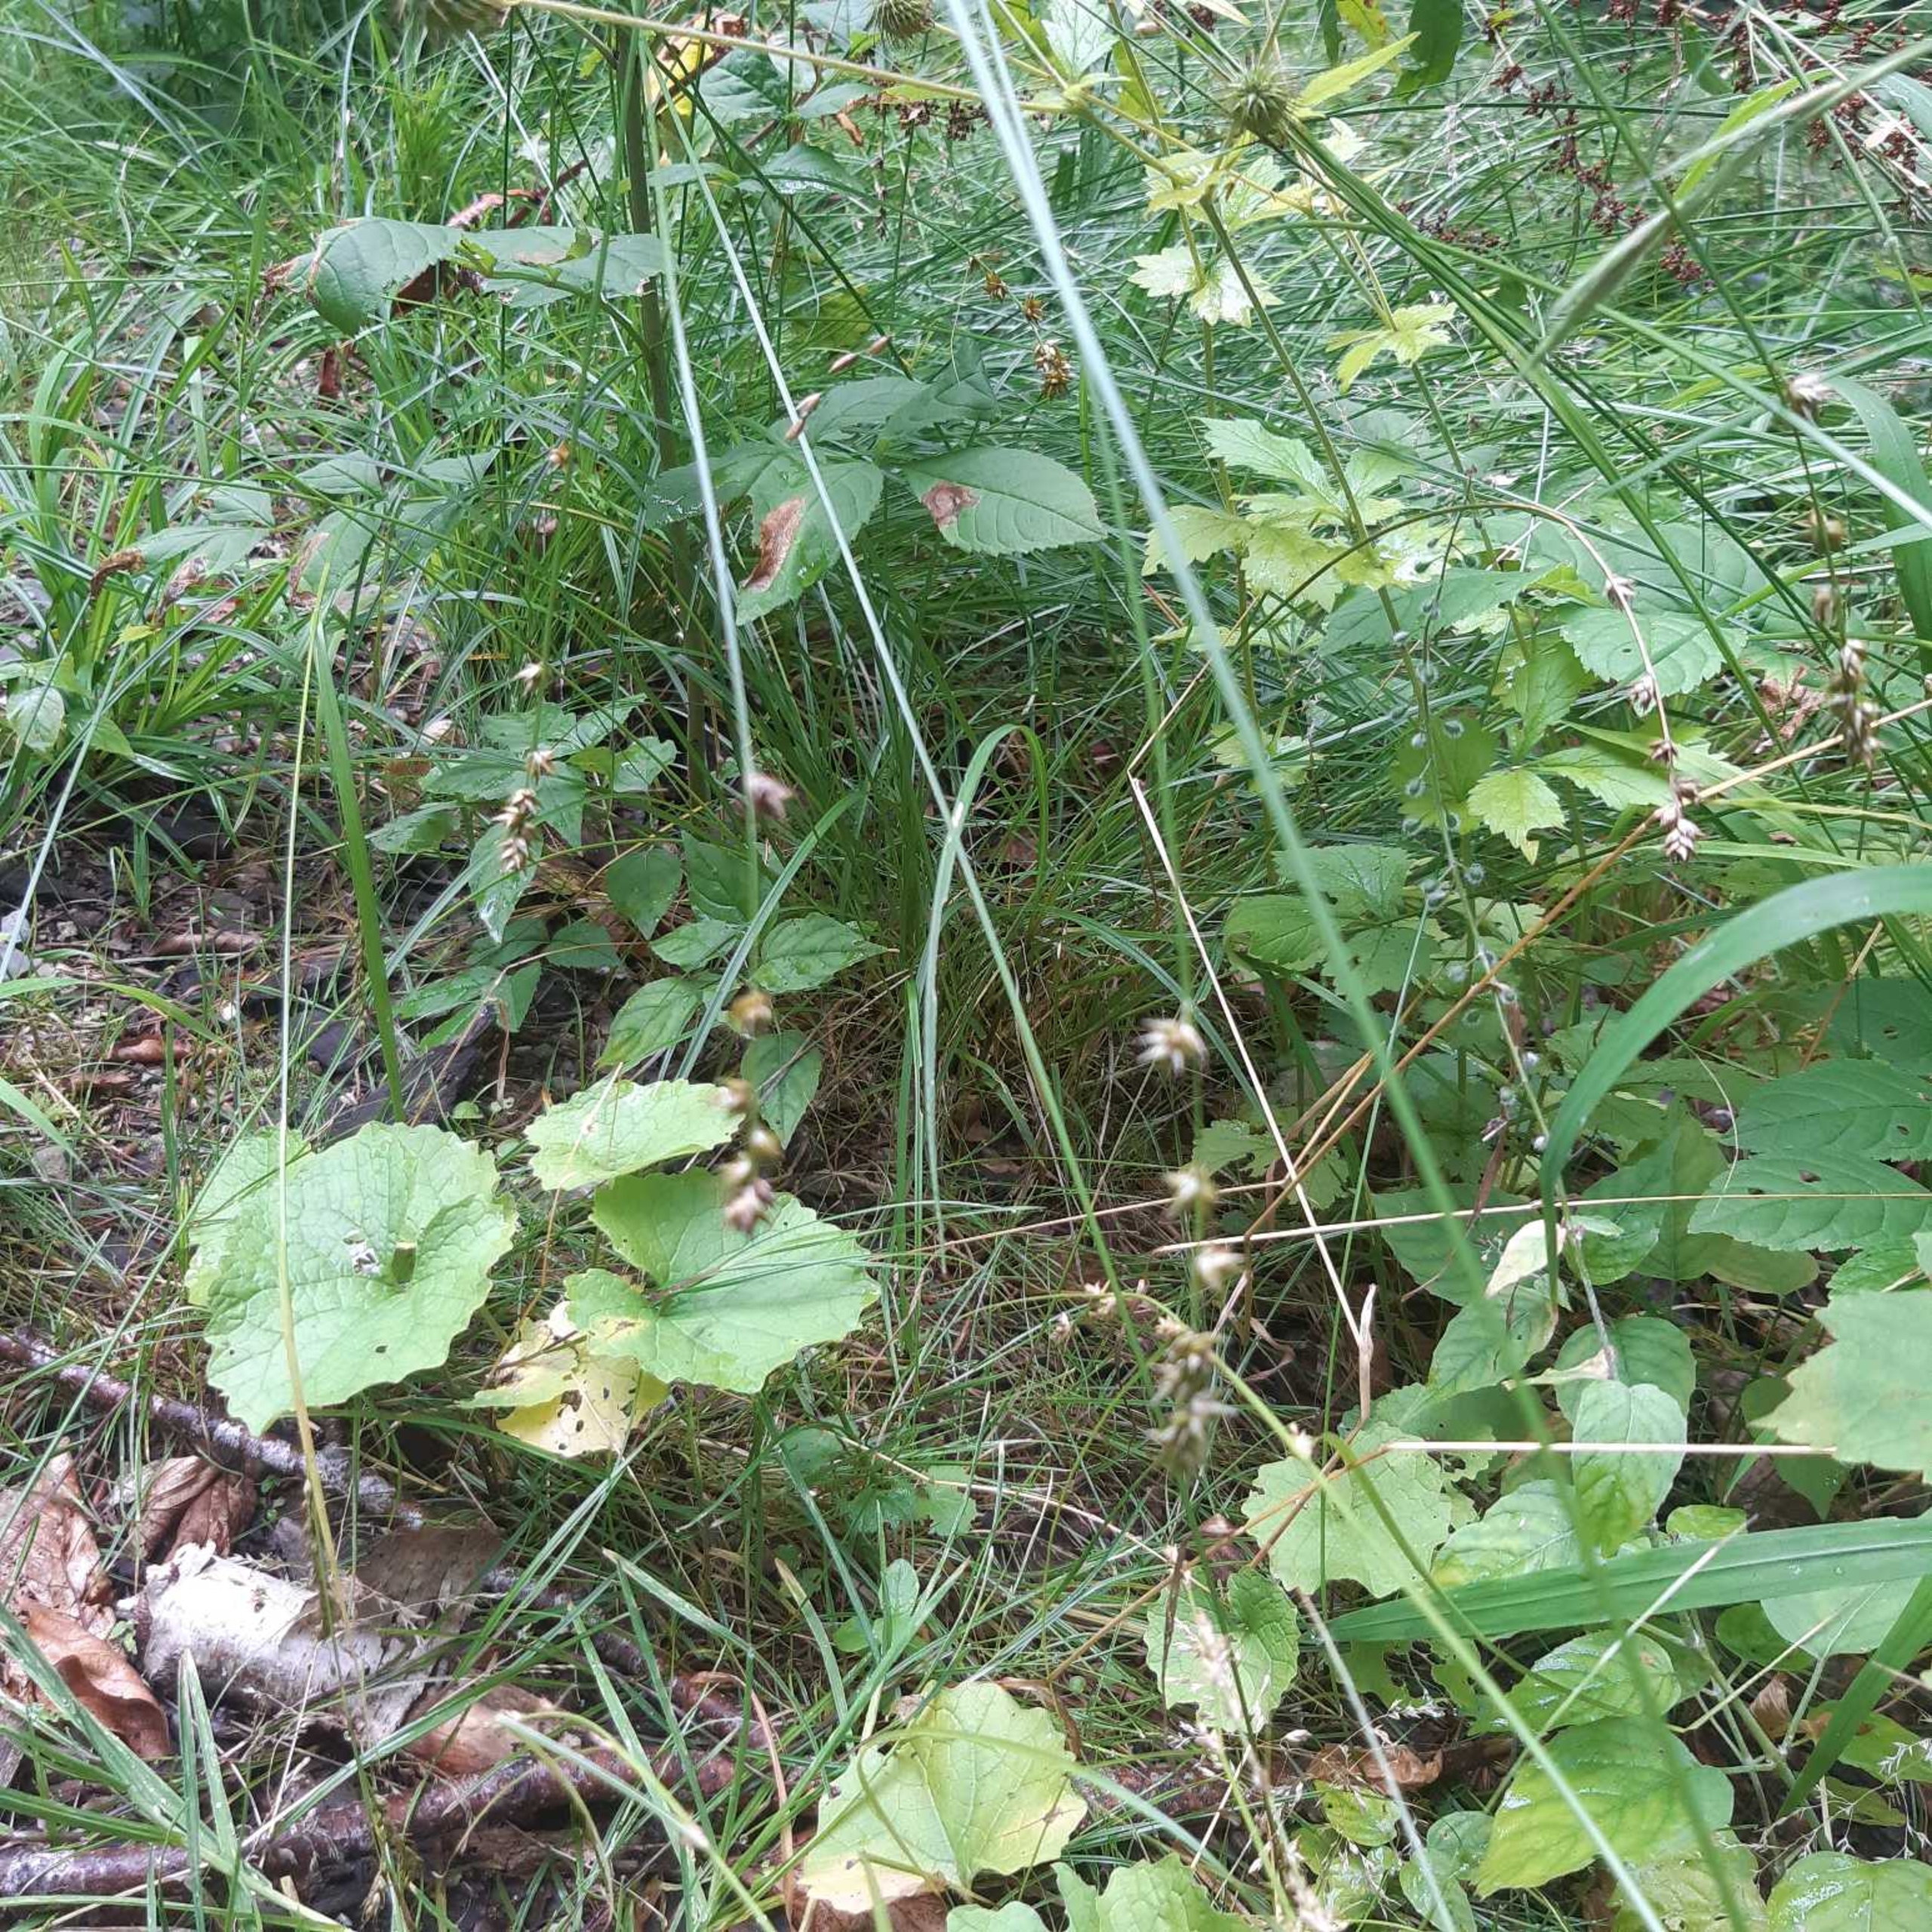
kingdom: Plantae
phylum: Tracheophyta
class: Liliopsida
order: Poales
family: Cyperaceae
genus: Carex
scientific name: Carex divulsa
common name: Mellembrudt star
